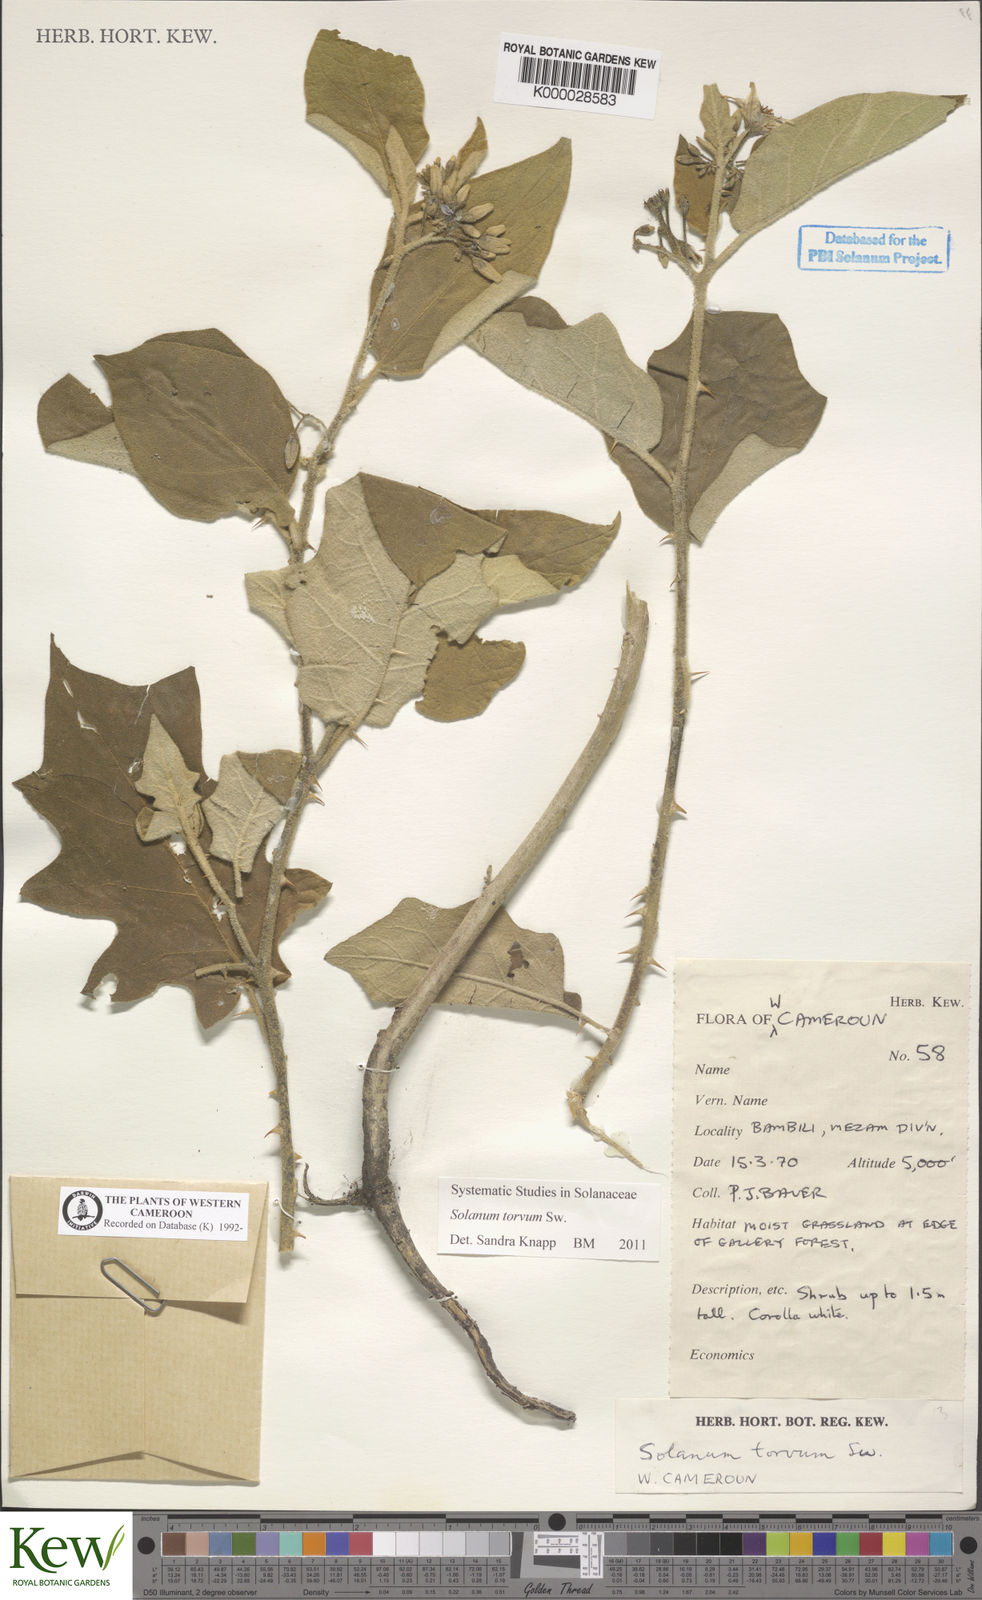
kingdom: Plantae
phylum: Tracheophyta
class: Magnoliopsida
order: Solanales
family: Solanaceae
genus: Solanum
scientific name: Solanum torvum
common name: Turkey berry
